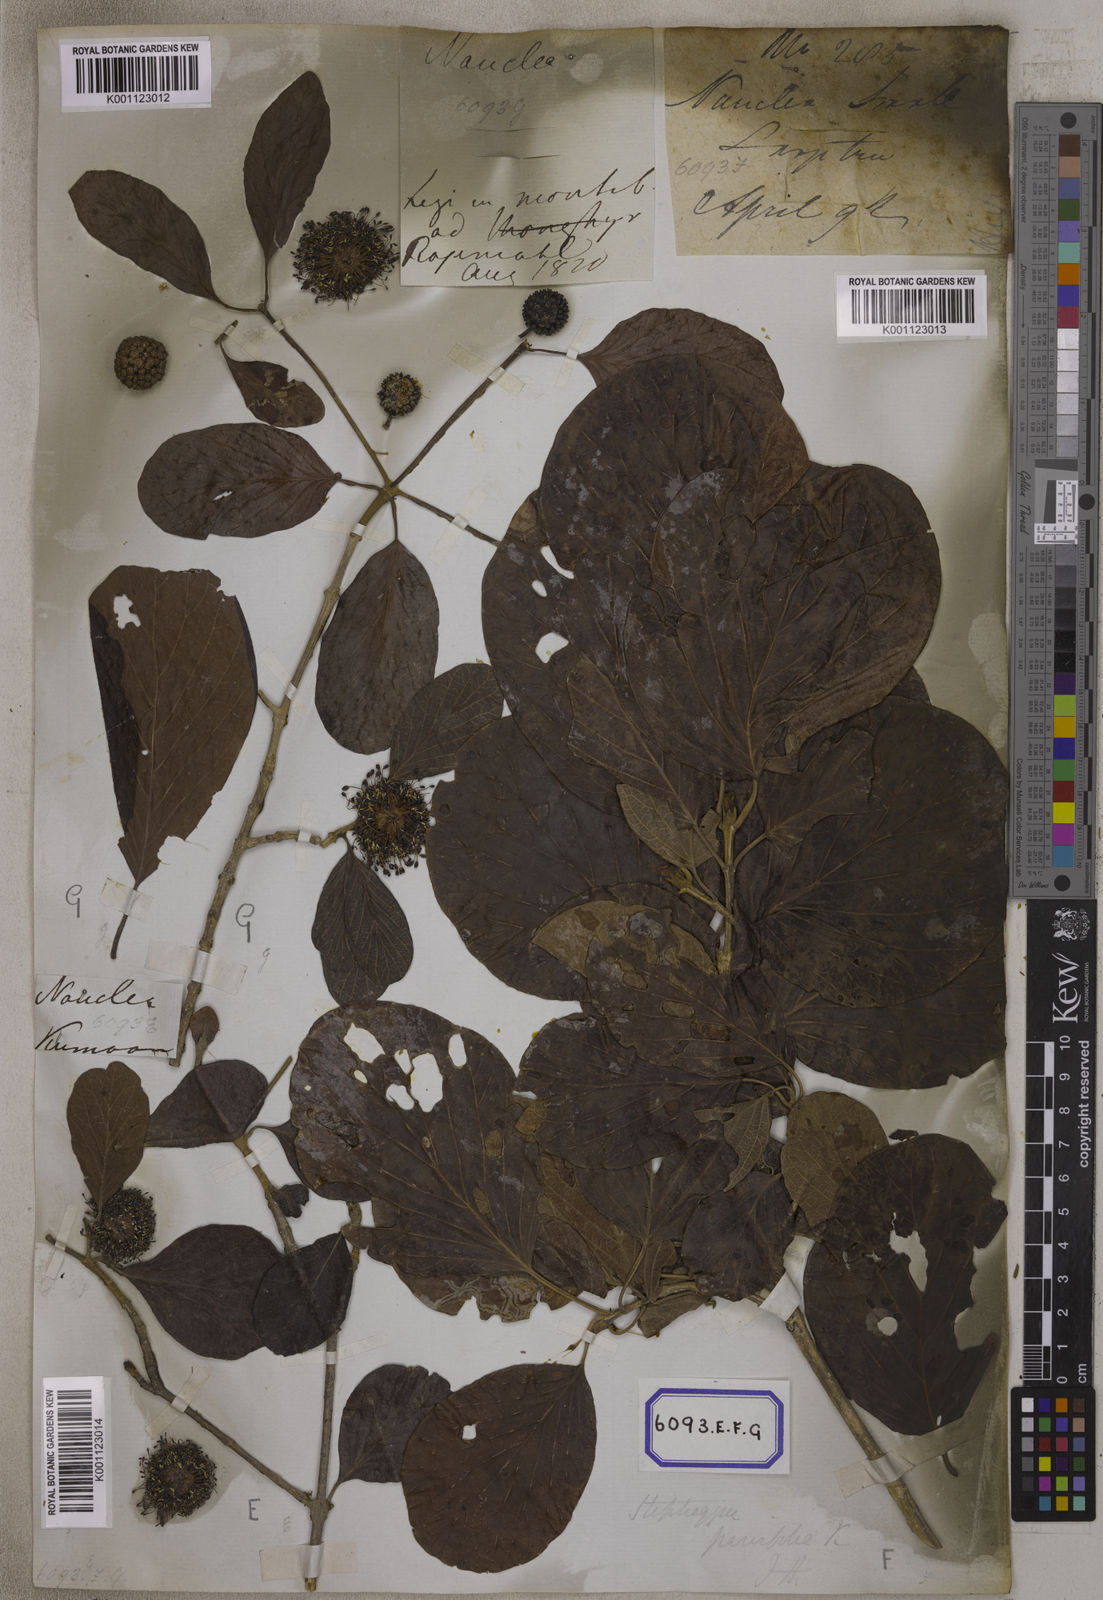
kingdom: Plantae
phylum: Tracheophyta
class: Magnoliopsida
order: Gentianales
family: Rubiaceae
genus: Nauclea
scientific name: Nauclea
